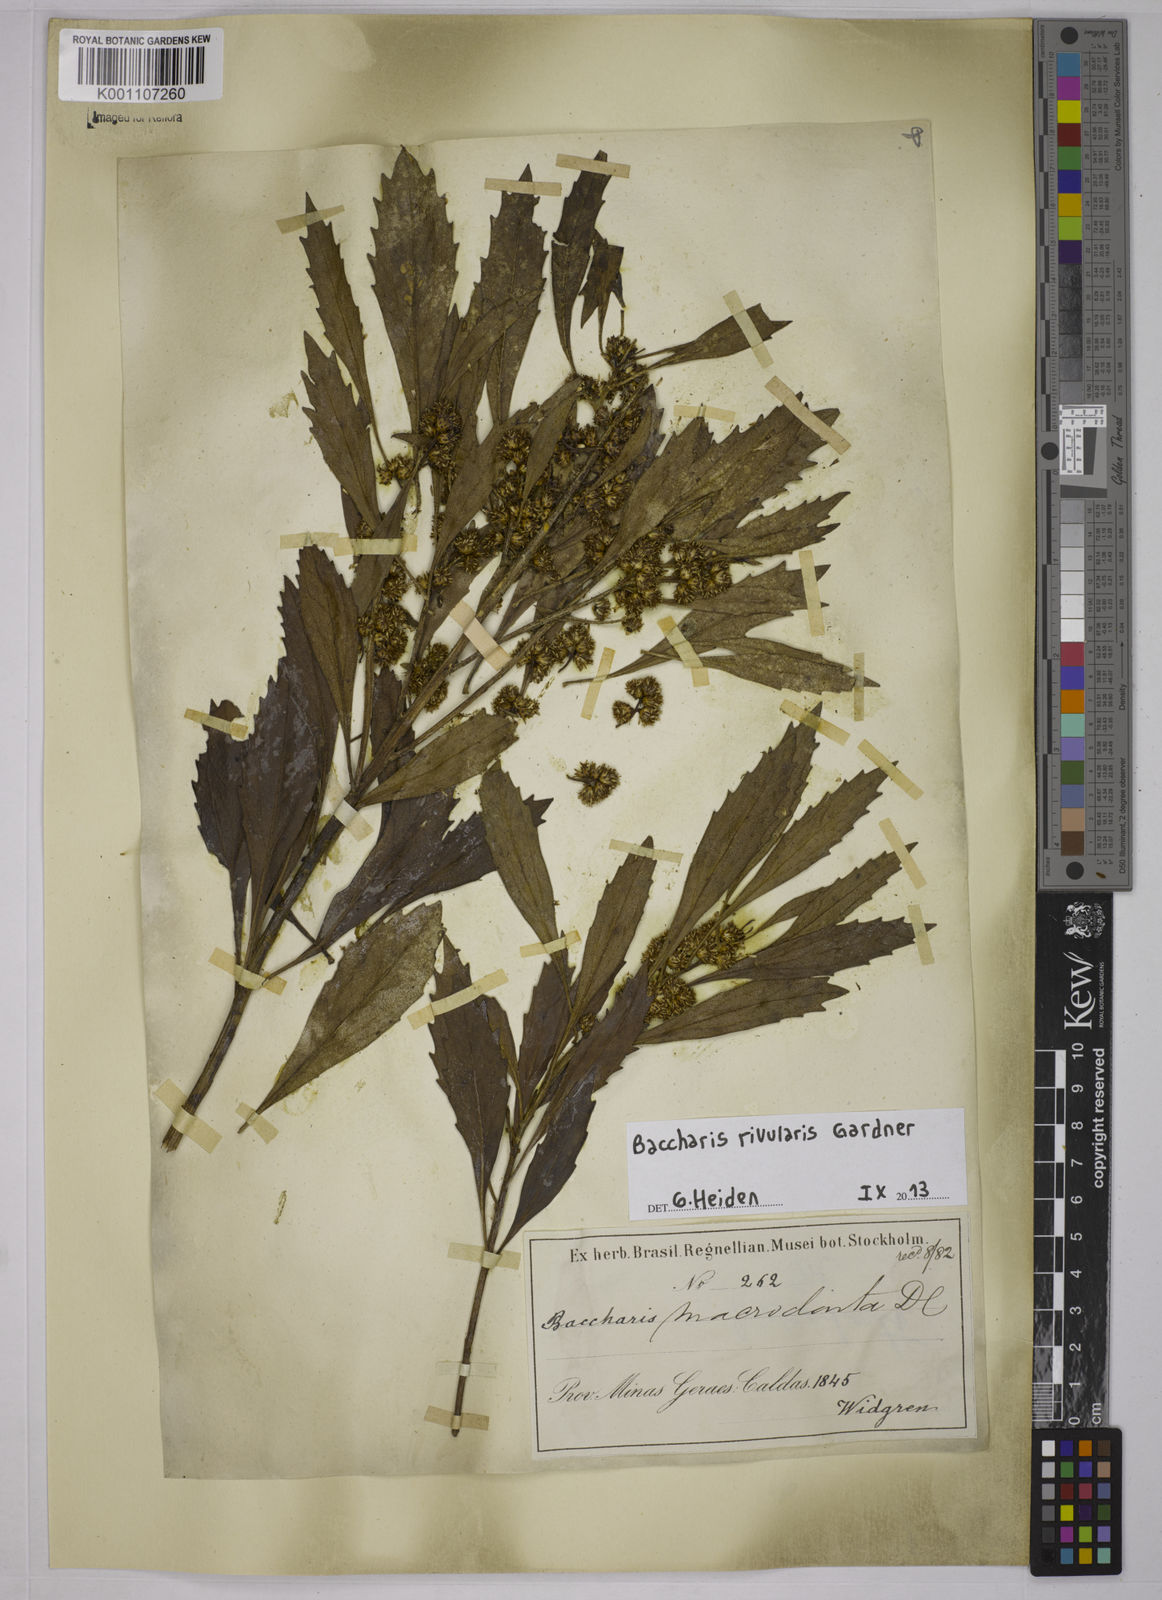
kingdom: Plantae
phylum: Tracheophyta
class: Magnoliopsida
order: Asterales
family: Asteraceae
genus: Baccharis
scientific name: Baccharis rivularis
